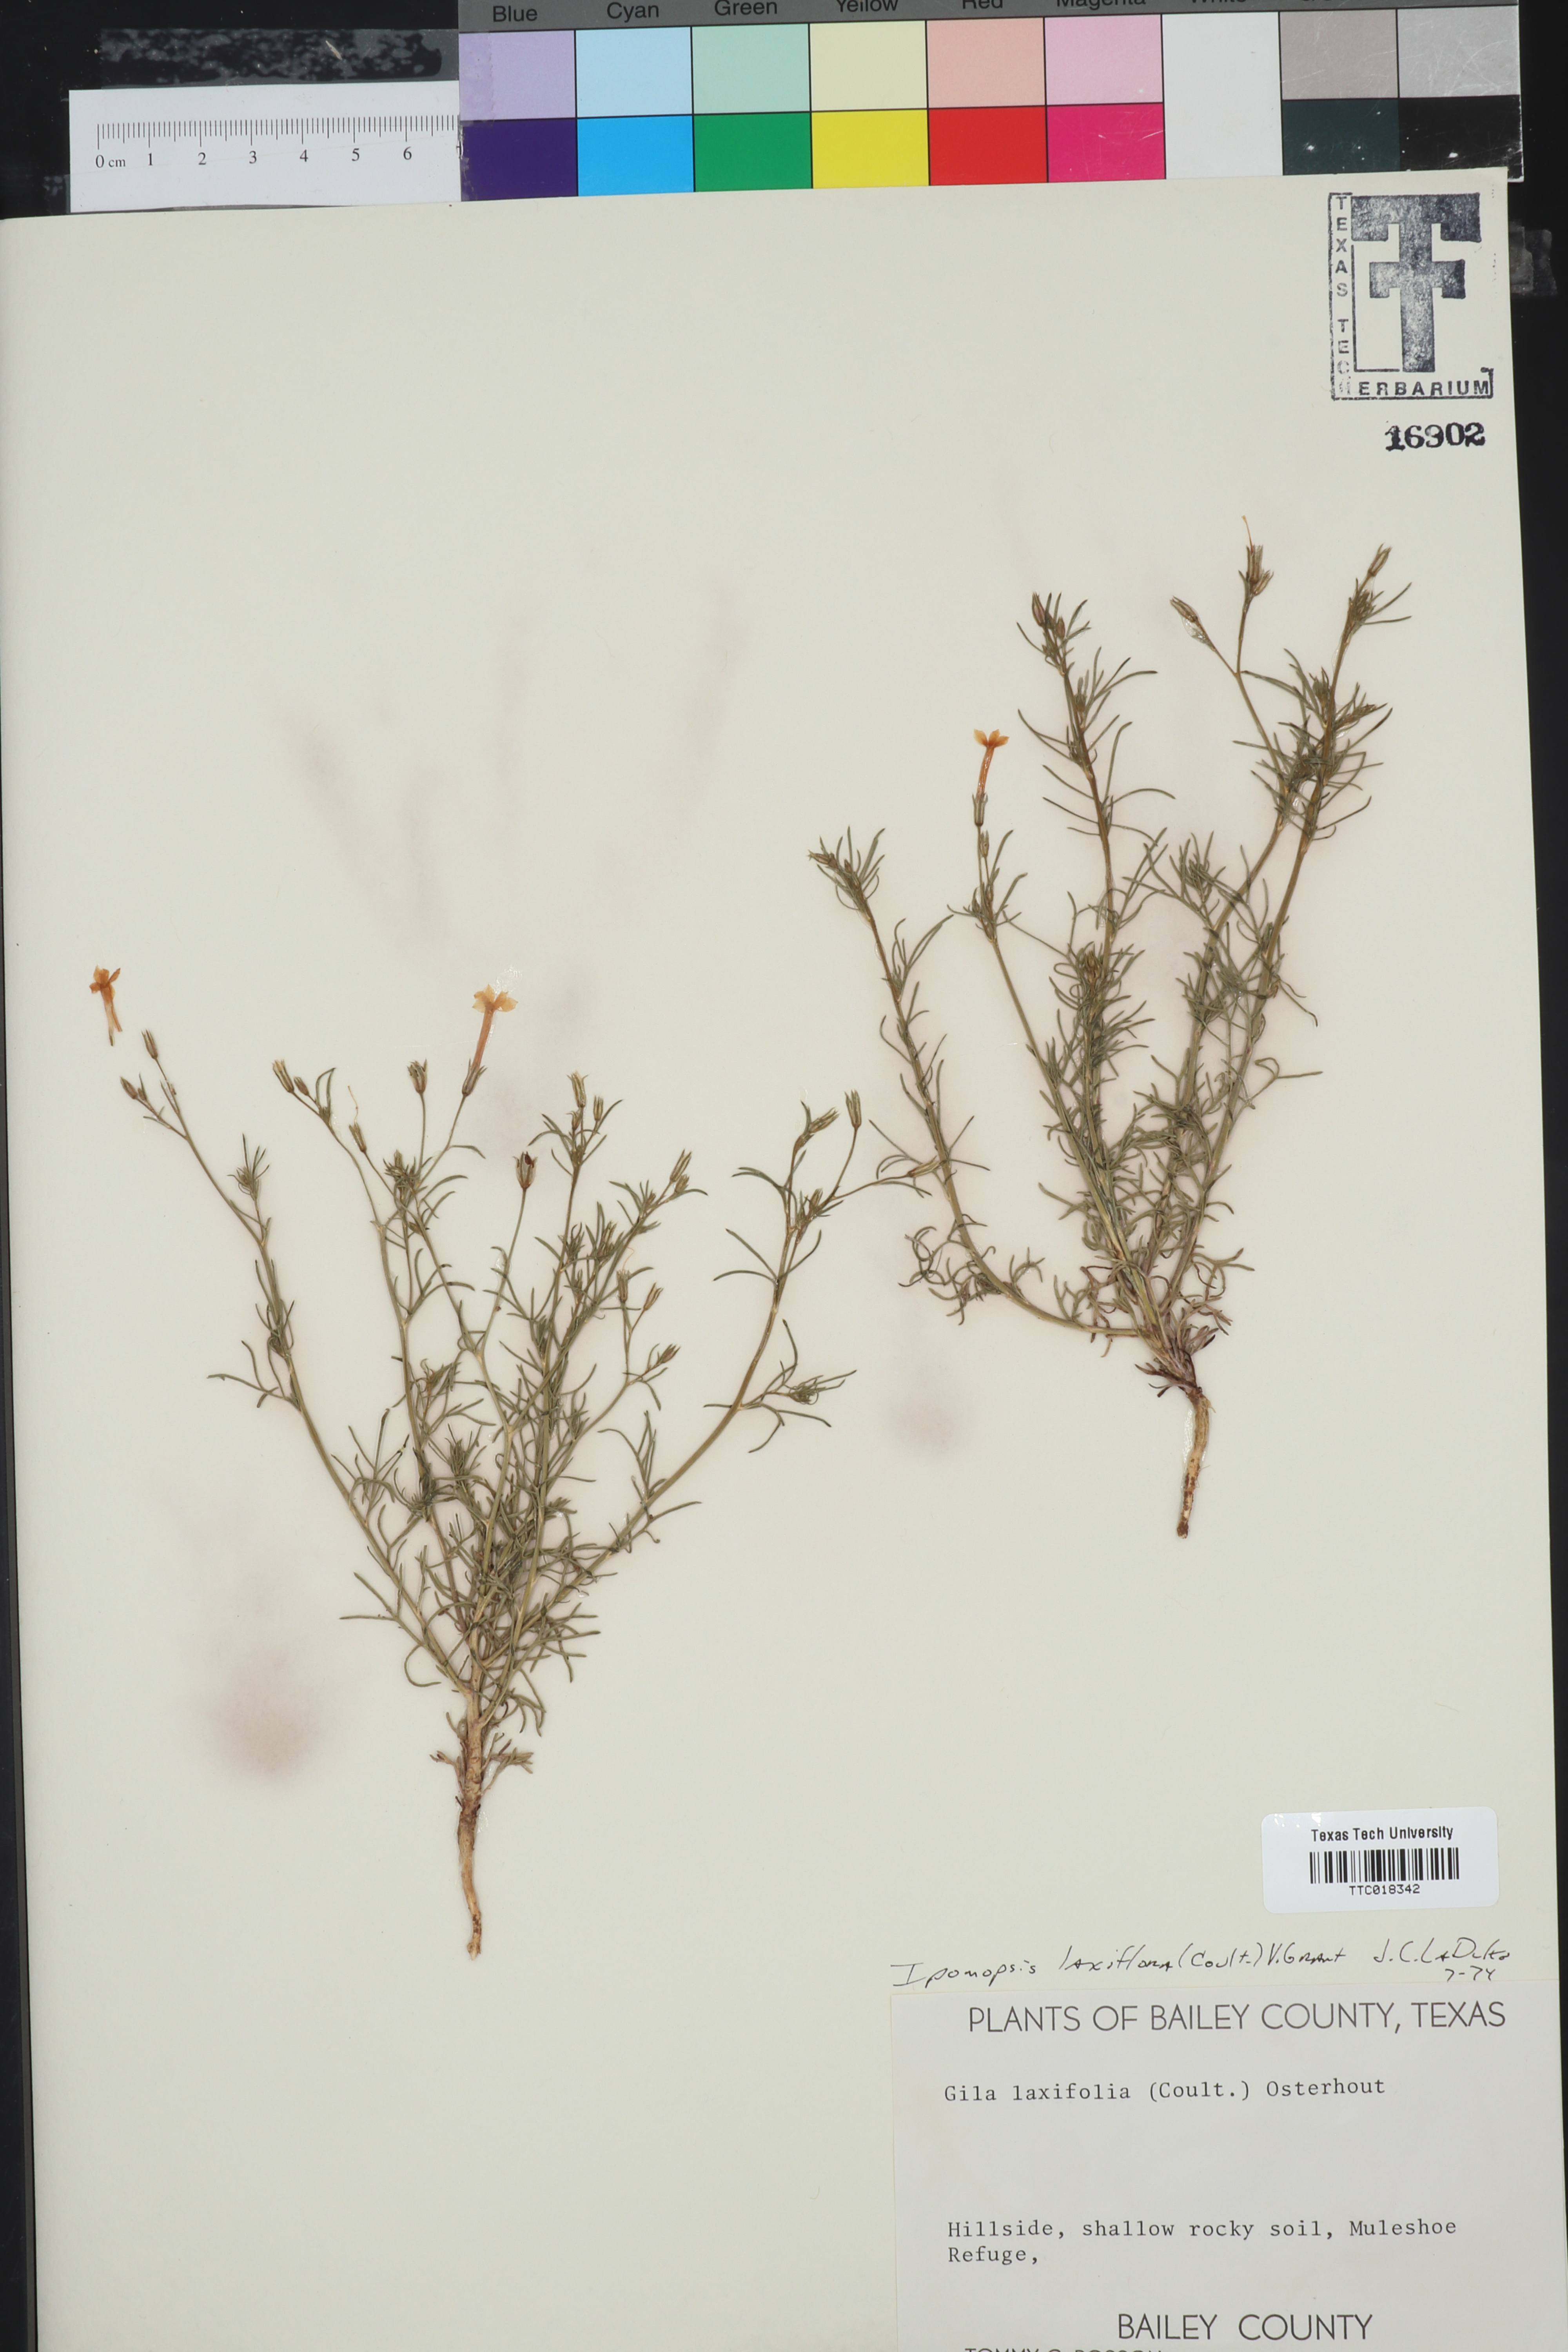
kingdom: Plantae
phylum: Tracheophyta
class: Magnoliopsida
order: Ericales
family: Polemoniaceae
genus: Ipomopsis
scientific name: Ipomopsis laxiflora
